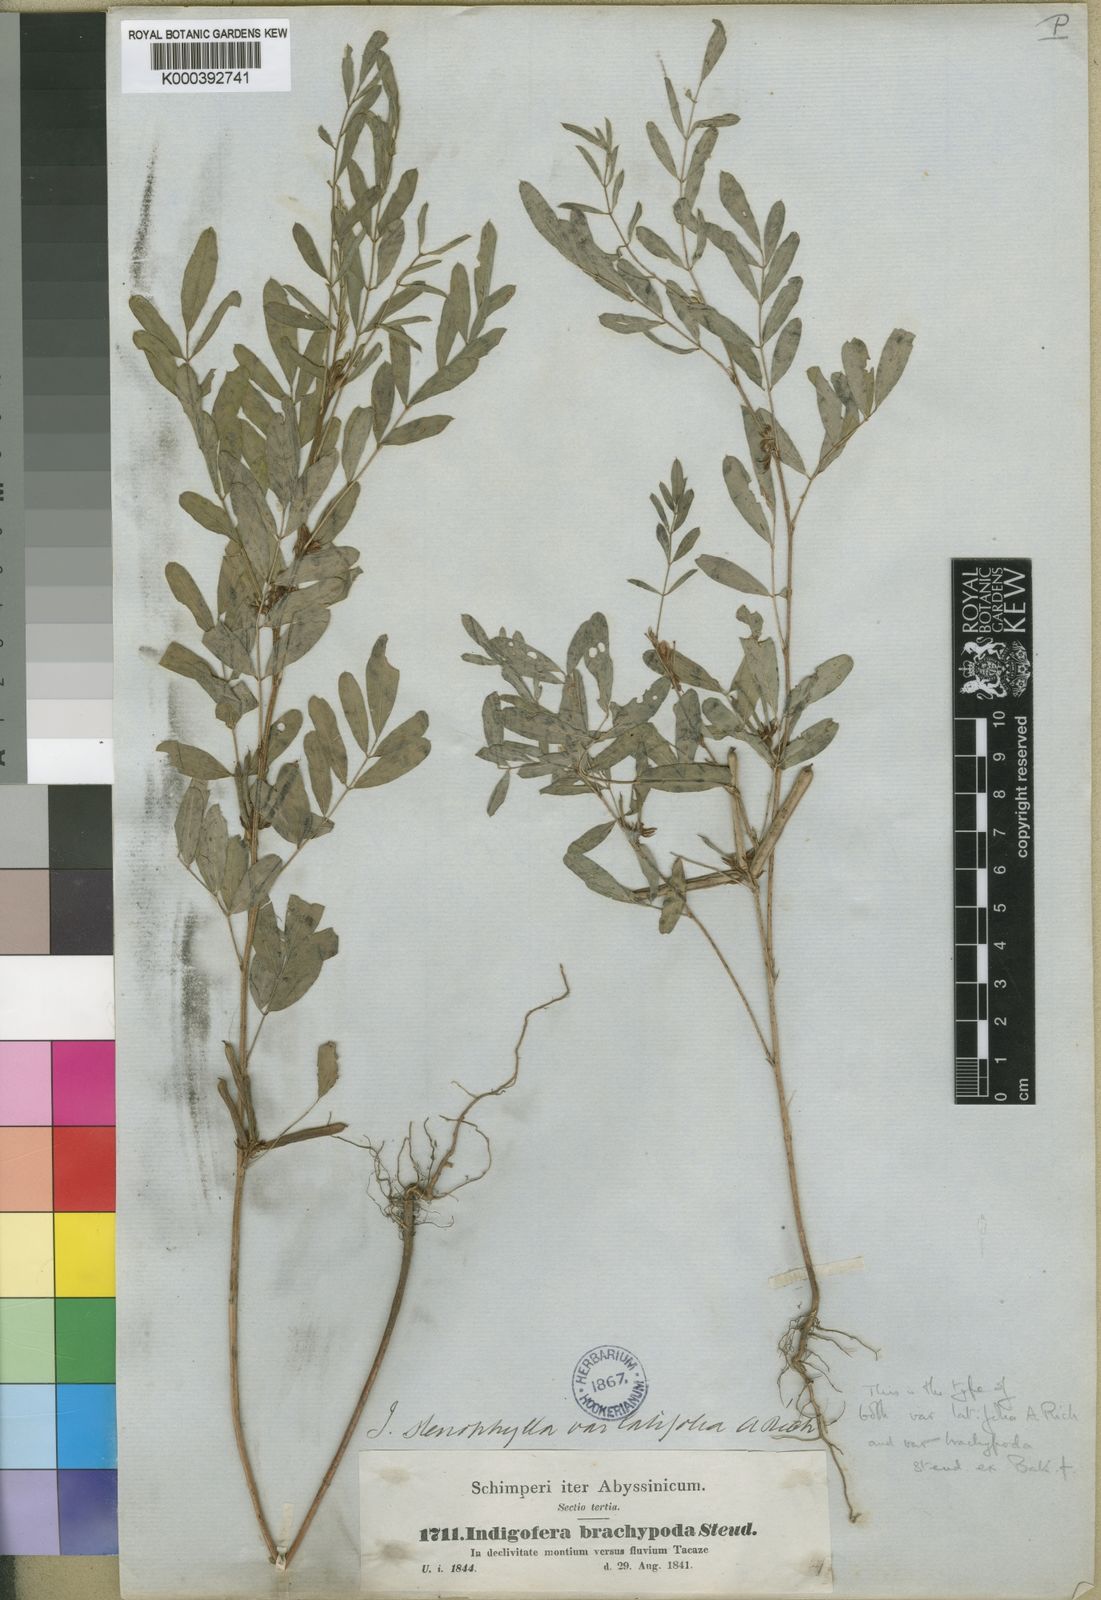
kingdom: Plantae
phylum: Tracheophyta
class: Magnoliopsida
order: Fabales
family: Fabaceae
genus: Indigofera
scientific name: Indigofera prieureana
